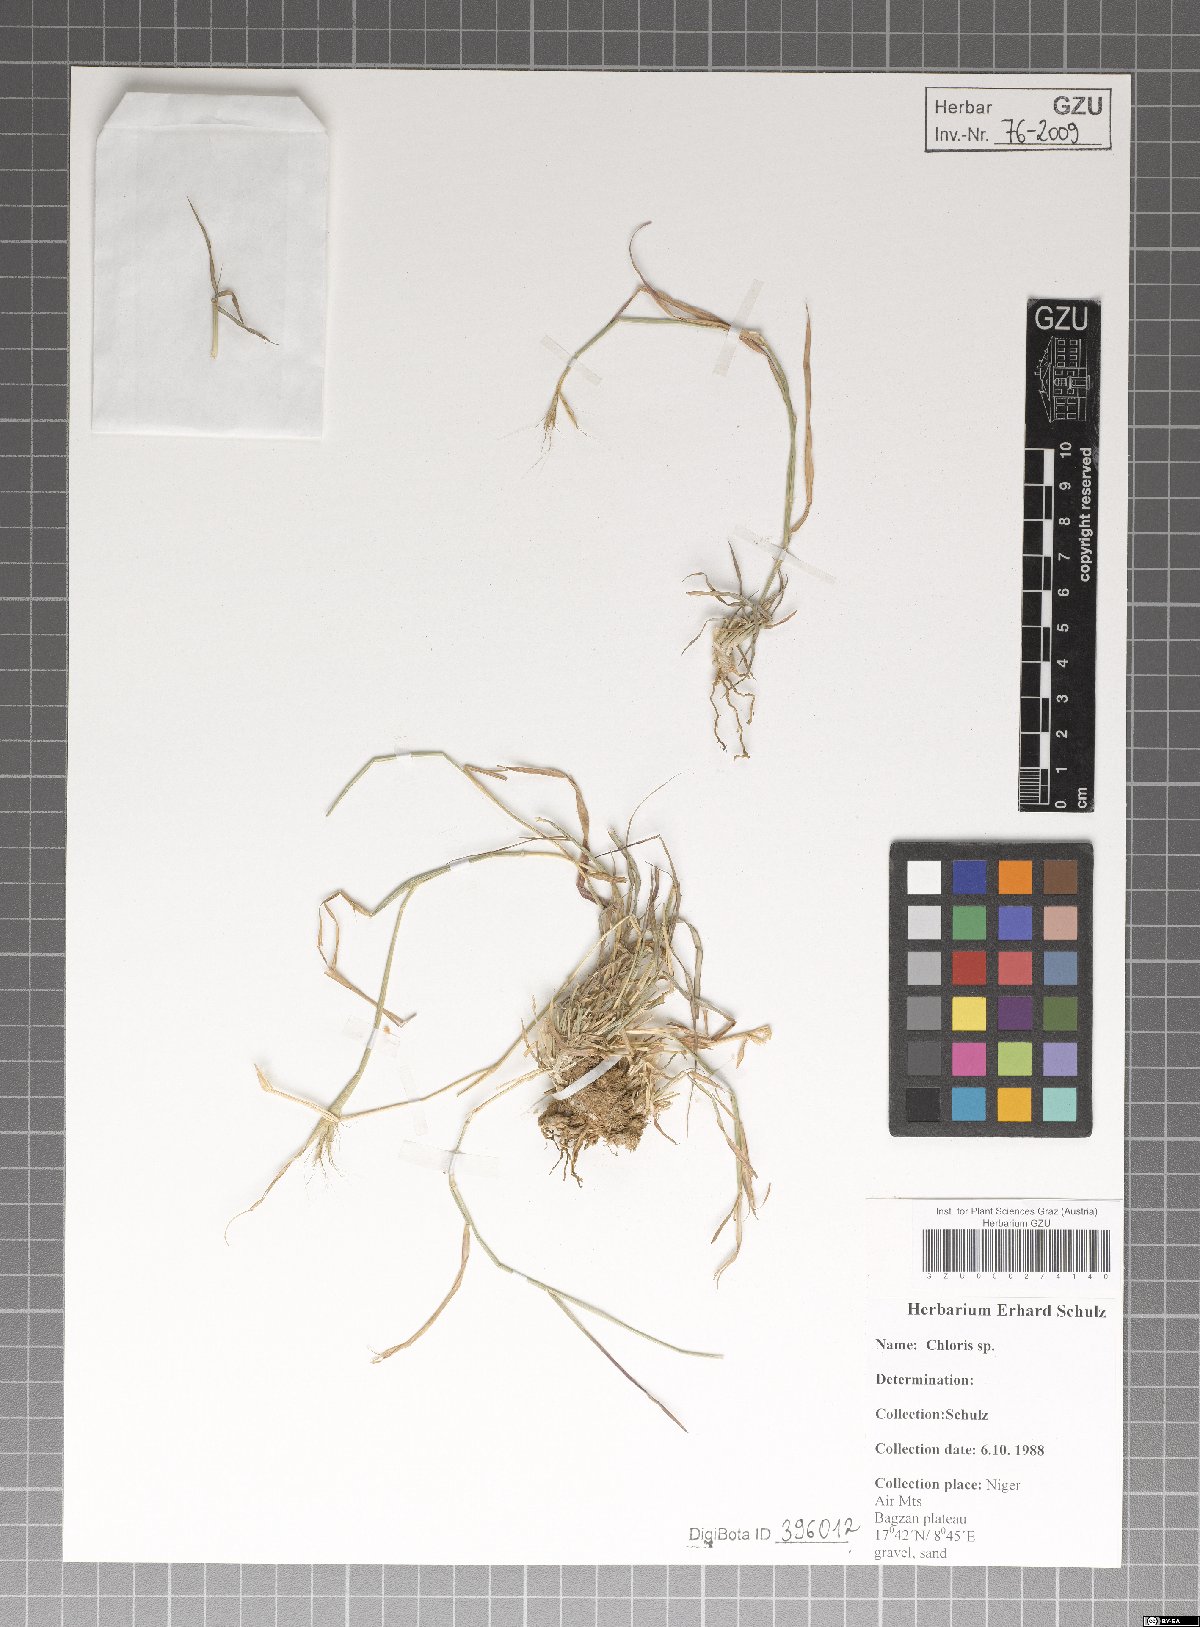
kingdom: Plantae
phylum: Tracheophyta
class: Liliopsida
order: Poales
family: Poaceae
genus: Chloris
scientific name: Chloris
